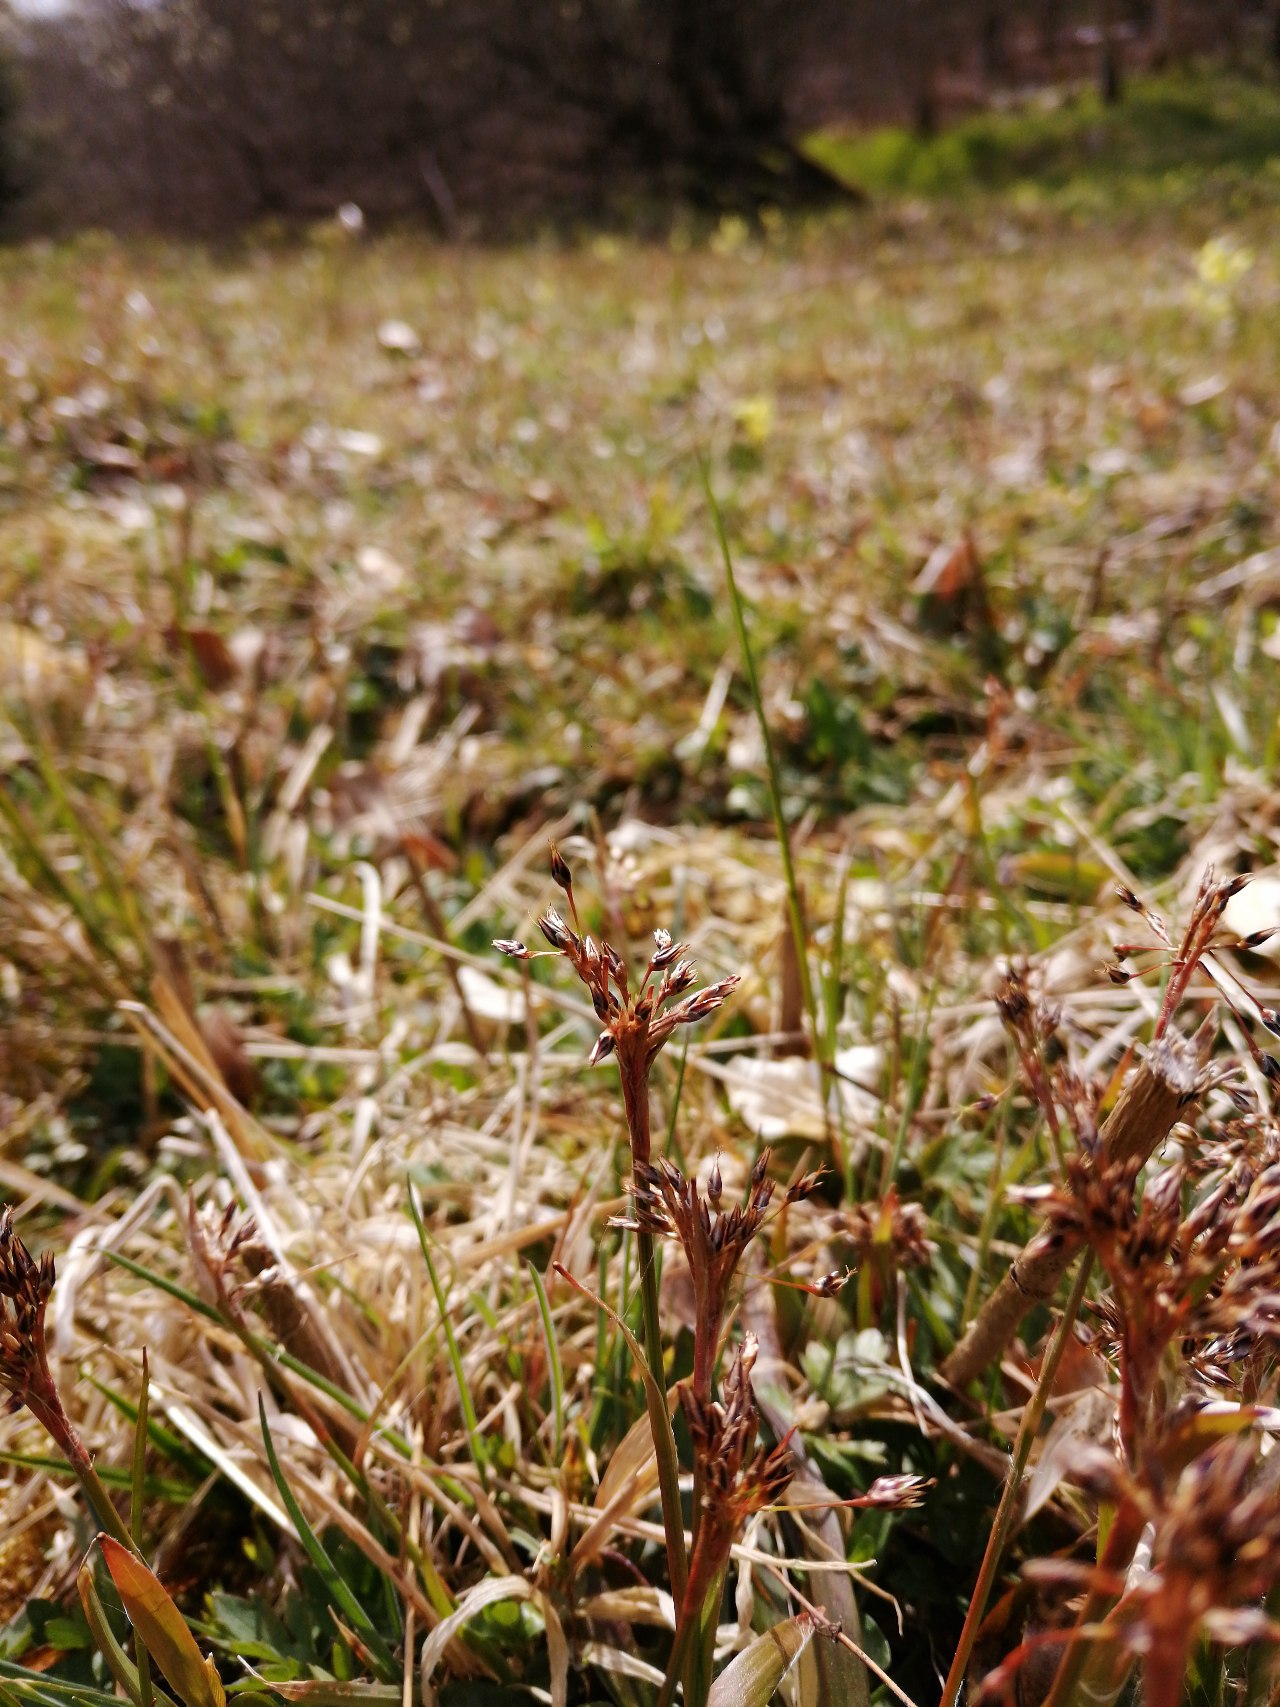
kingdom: Plantae
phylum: Tracheophyta
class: Liliopsida
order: Poales
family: Juncaceae
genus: Luzula
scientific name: Luzula pilosa
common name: Håret frytle
